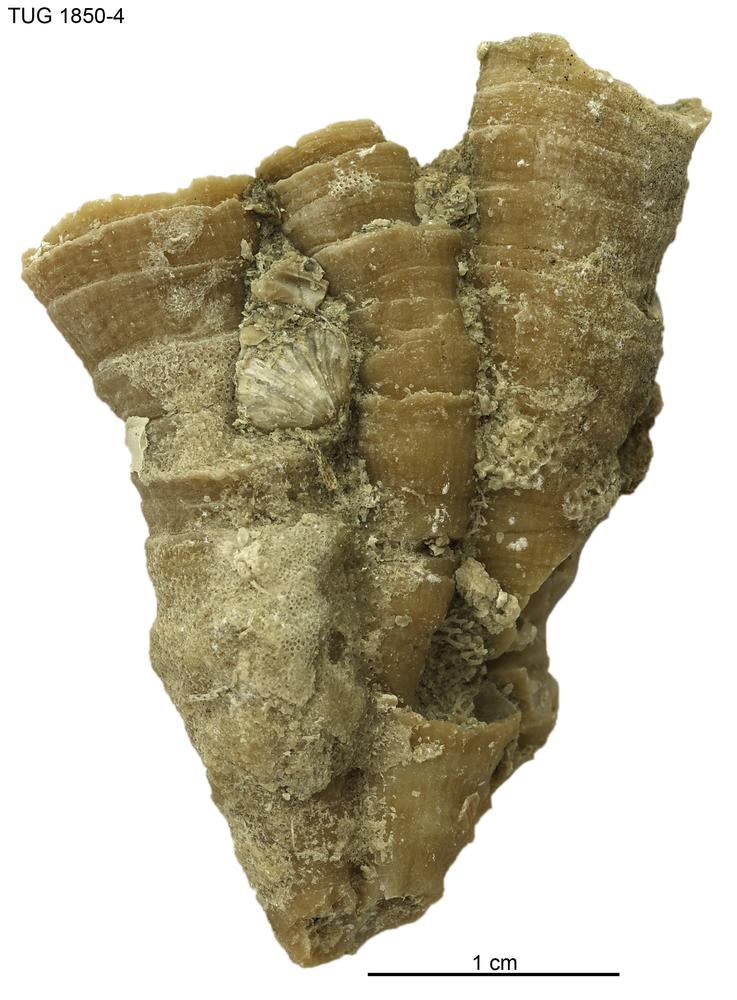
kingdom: Animalia
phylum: Cnidaria
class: Anthozoa
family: Entelophyllidae
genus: Entelophyllum
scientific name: Entelophyllum
